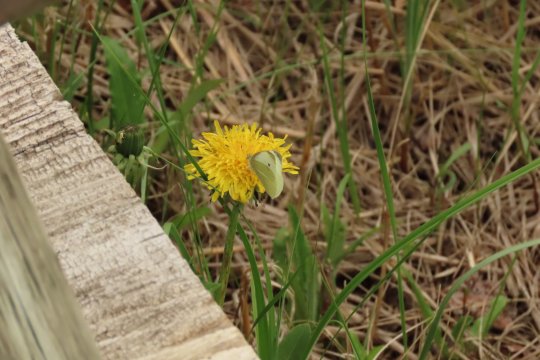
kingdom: Animalia
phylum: Arthropoda
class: Insecta
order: Lepidoptera
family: Pieridae
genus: Pieris
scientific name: Pieris rapae
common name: Cabbage White
